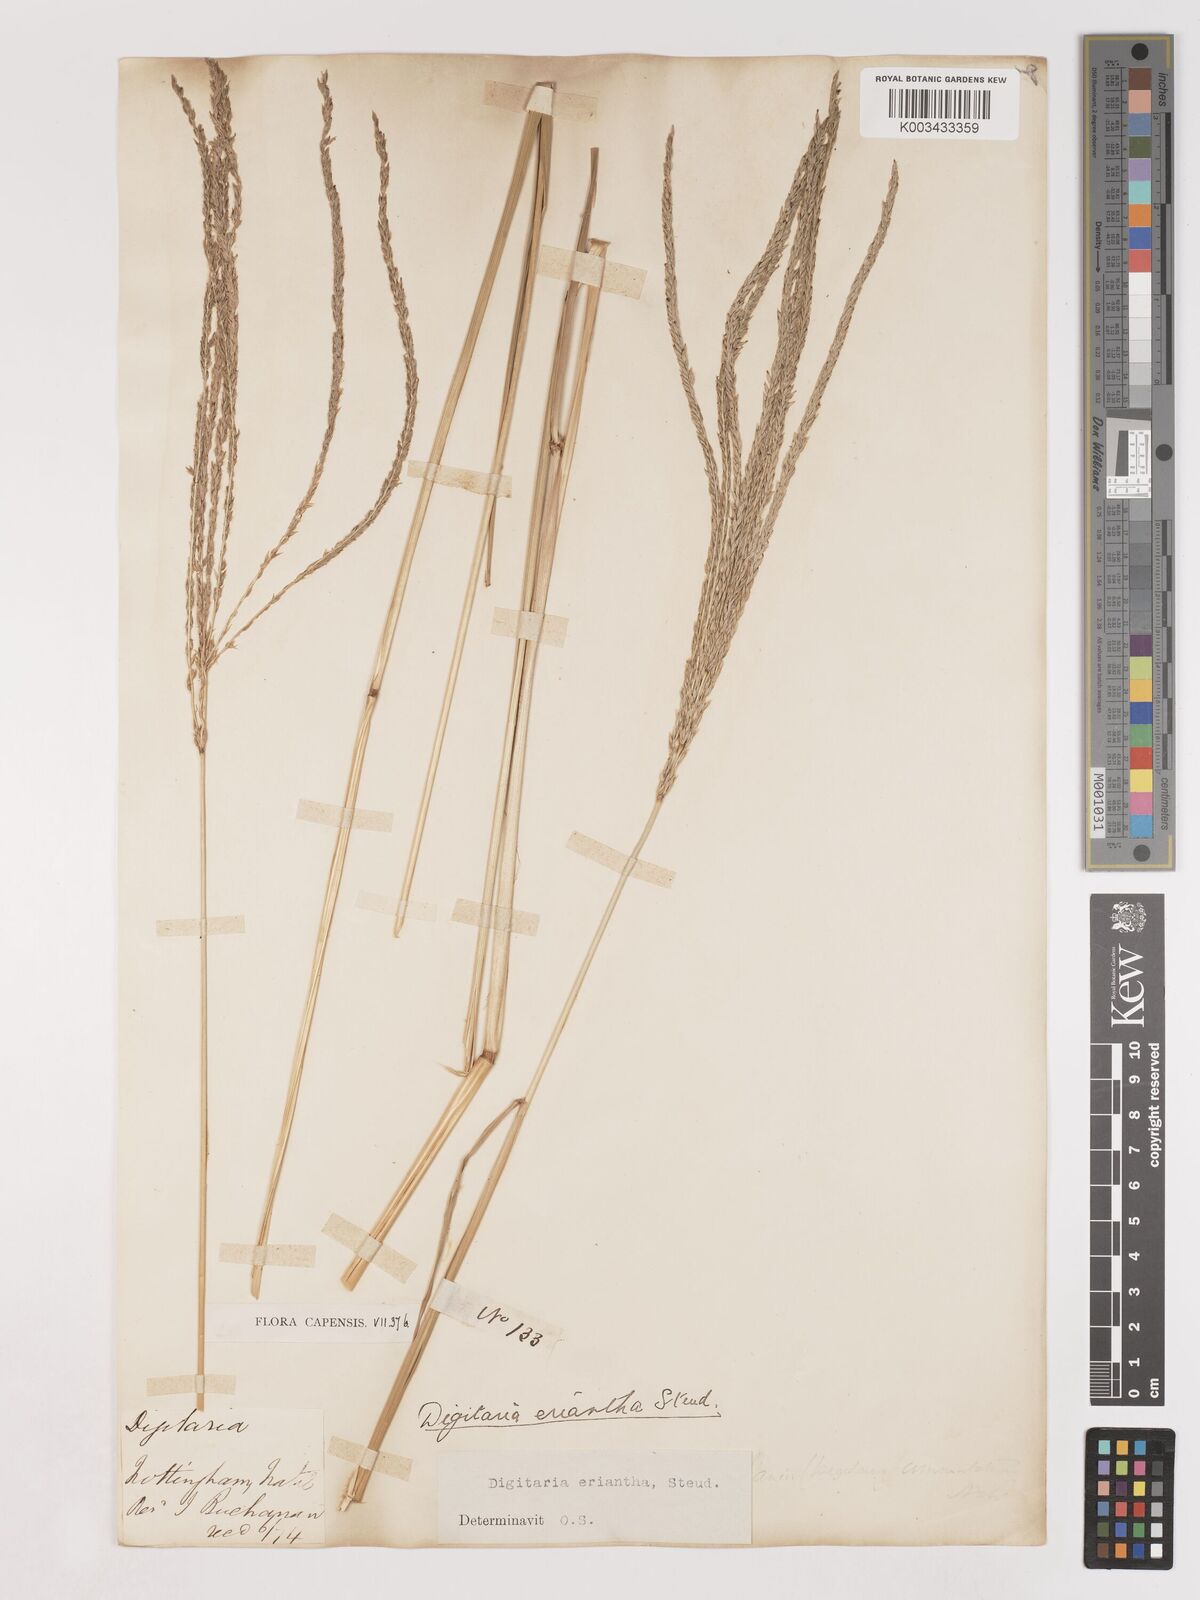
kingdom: Plantae
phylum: Tracheophyta
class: Liliopsida
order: Poales
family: Poaceae
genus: Digitaria
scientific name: Digitaria eriantha
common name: Digitgrass
